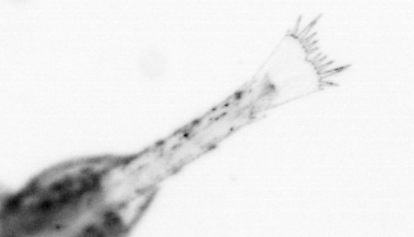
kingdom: Animalia
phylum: Arthropoda
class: Malacostraca
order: Decapoda
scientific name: Decapoda
